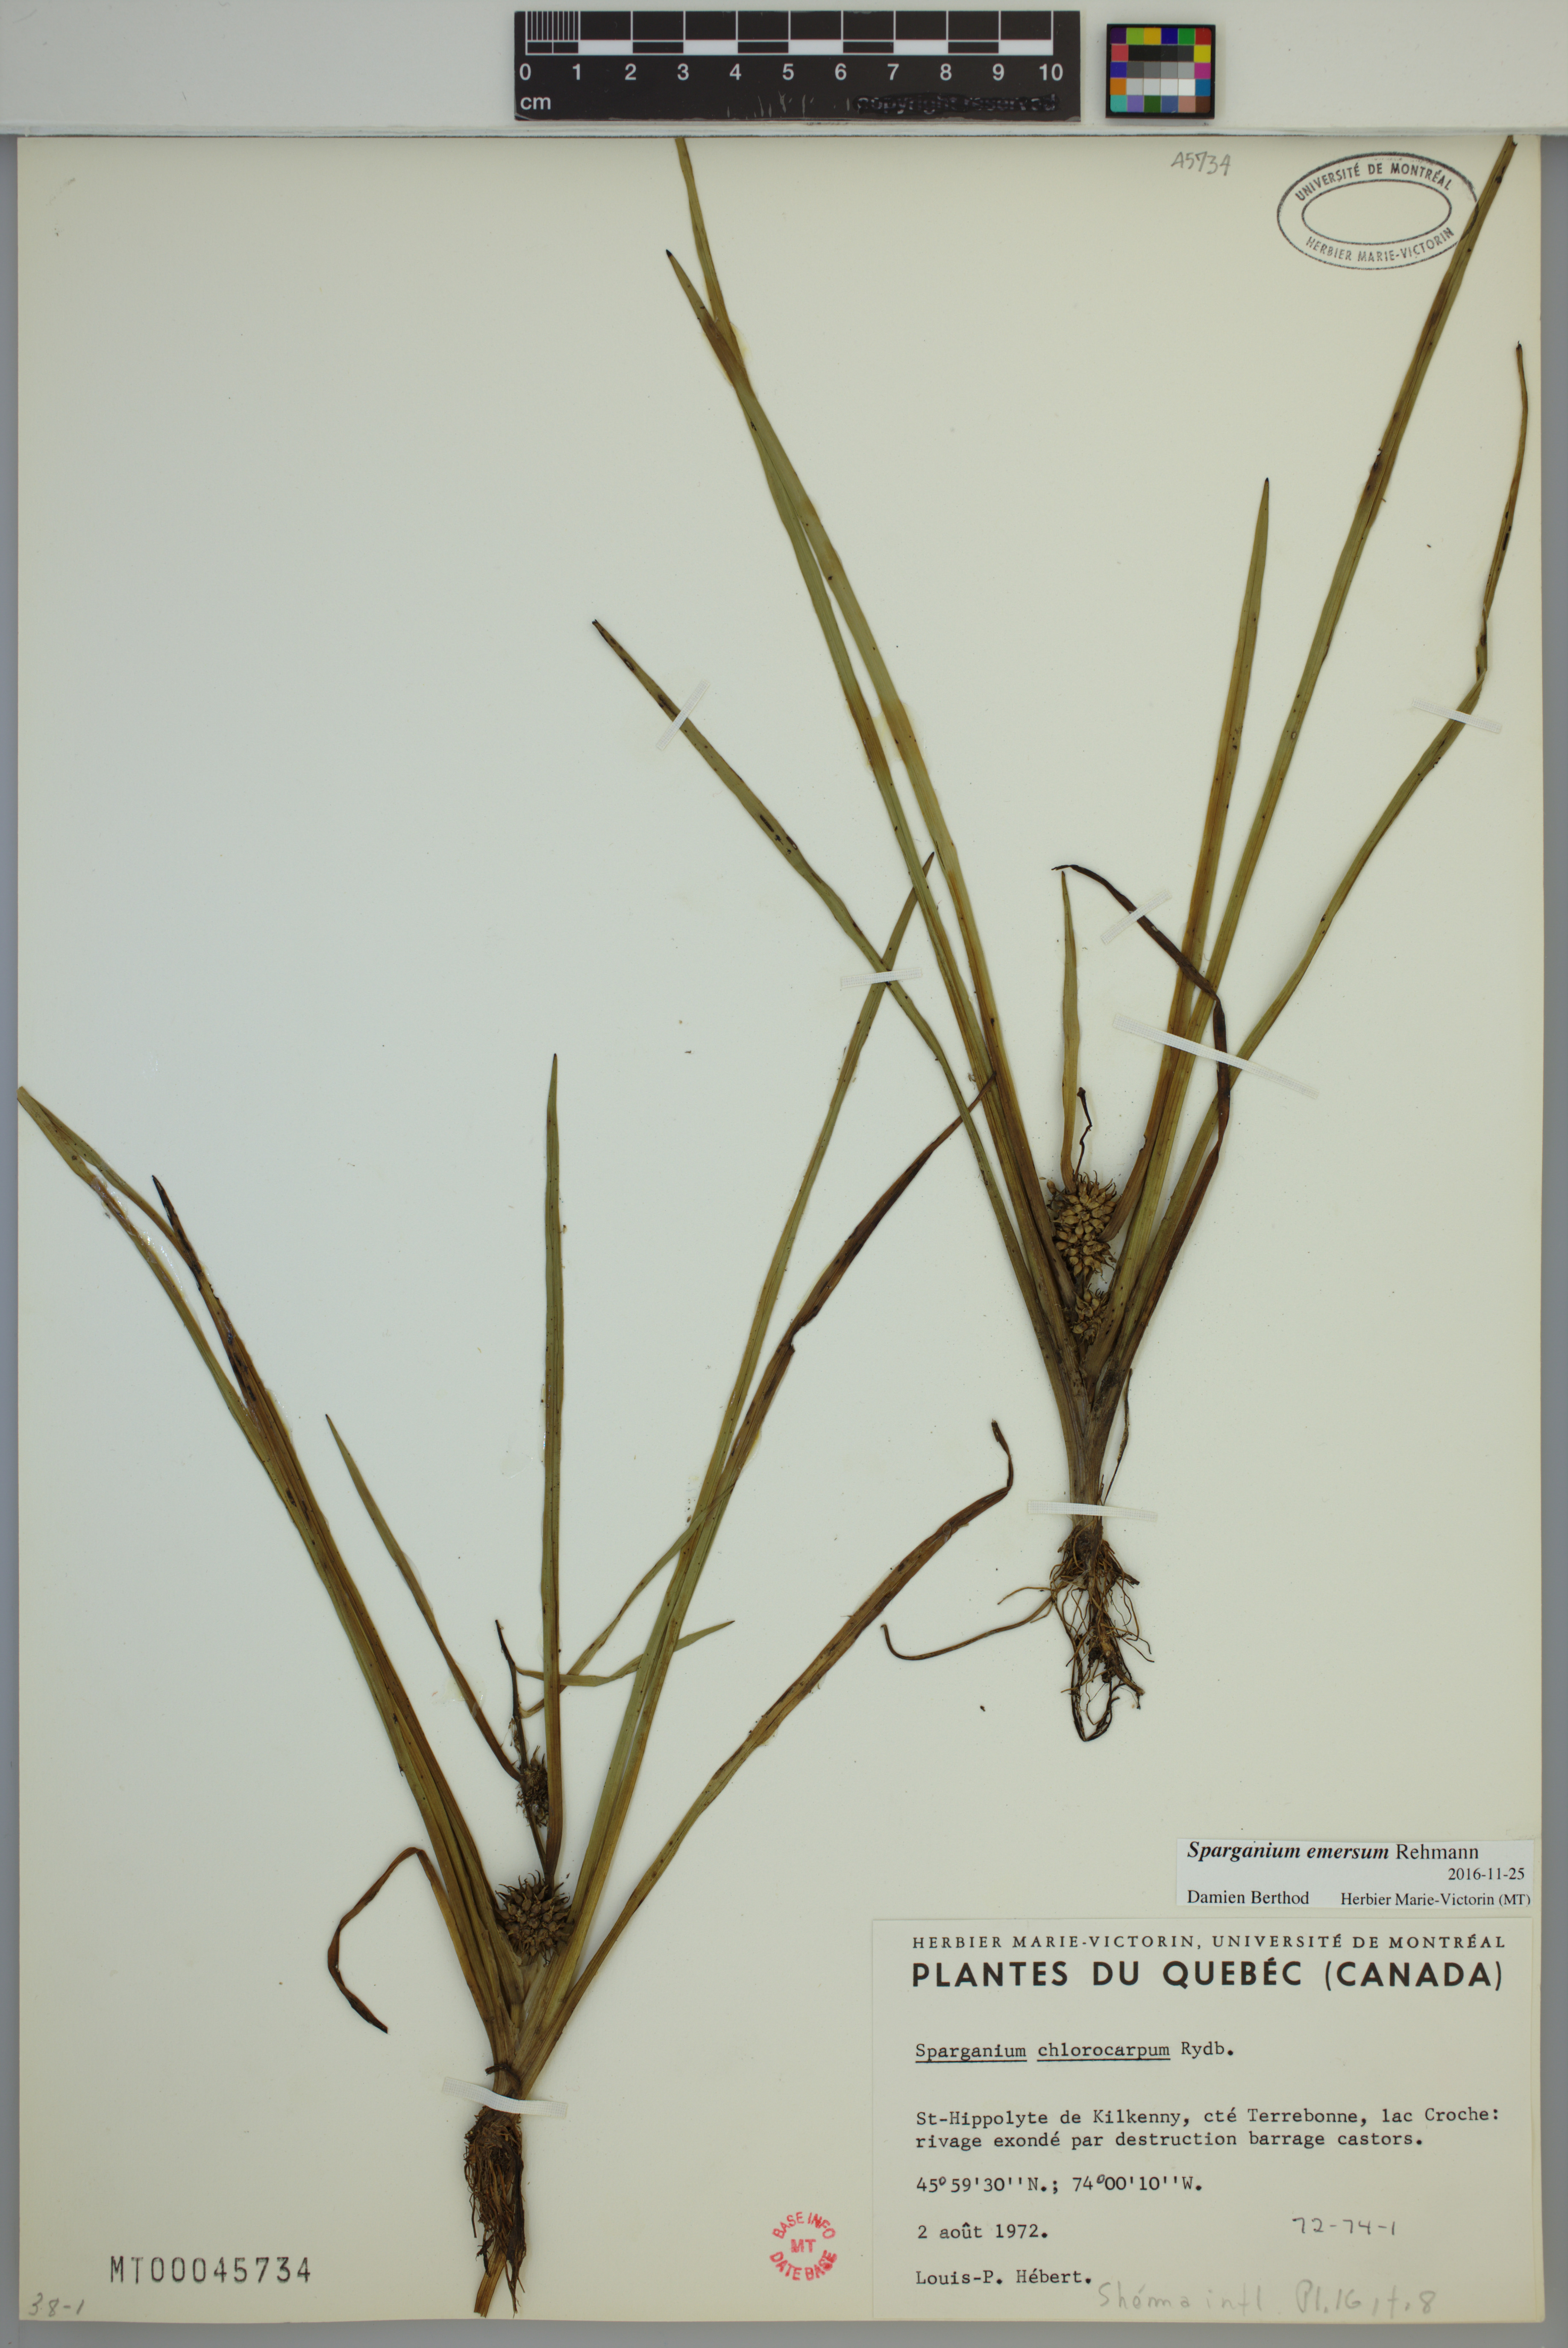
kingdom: Plantae
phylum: Tracheophyta
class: Liliopsida
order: Poales
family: Typhaceae
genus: Sparganium
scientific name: Sparganium emersum
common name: Unbranched bur-reed
